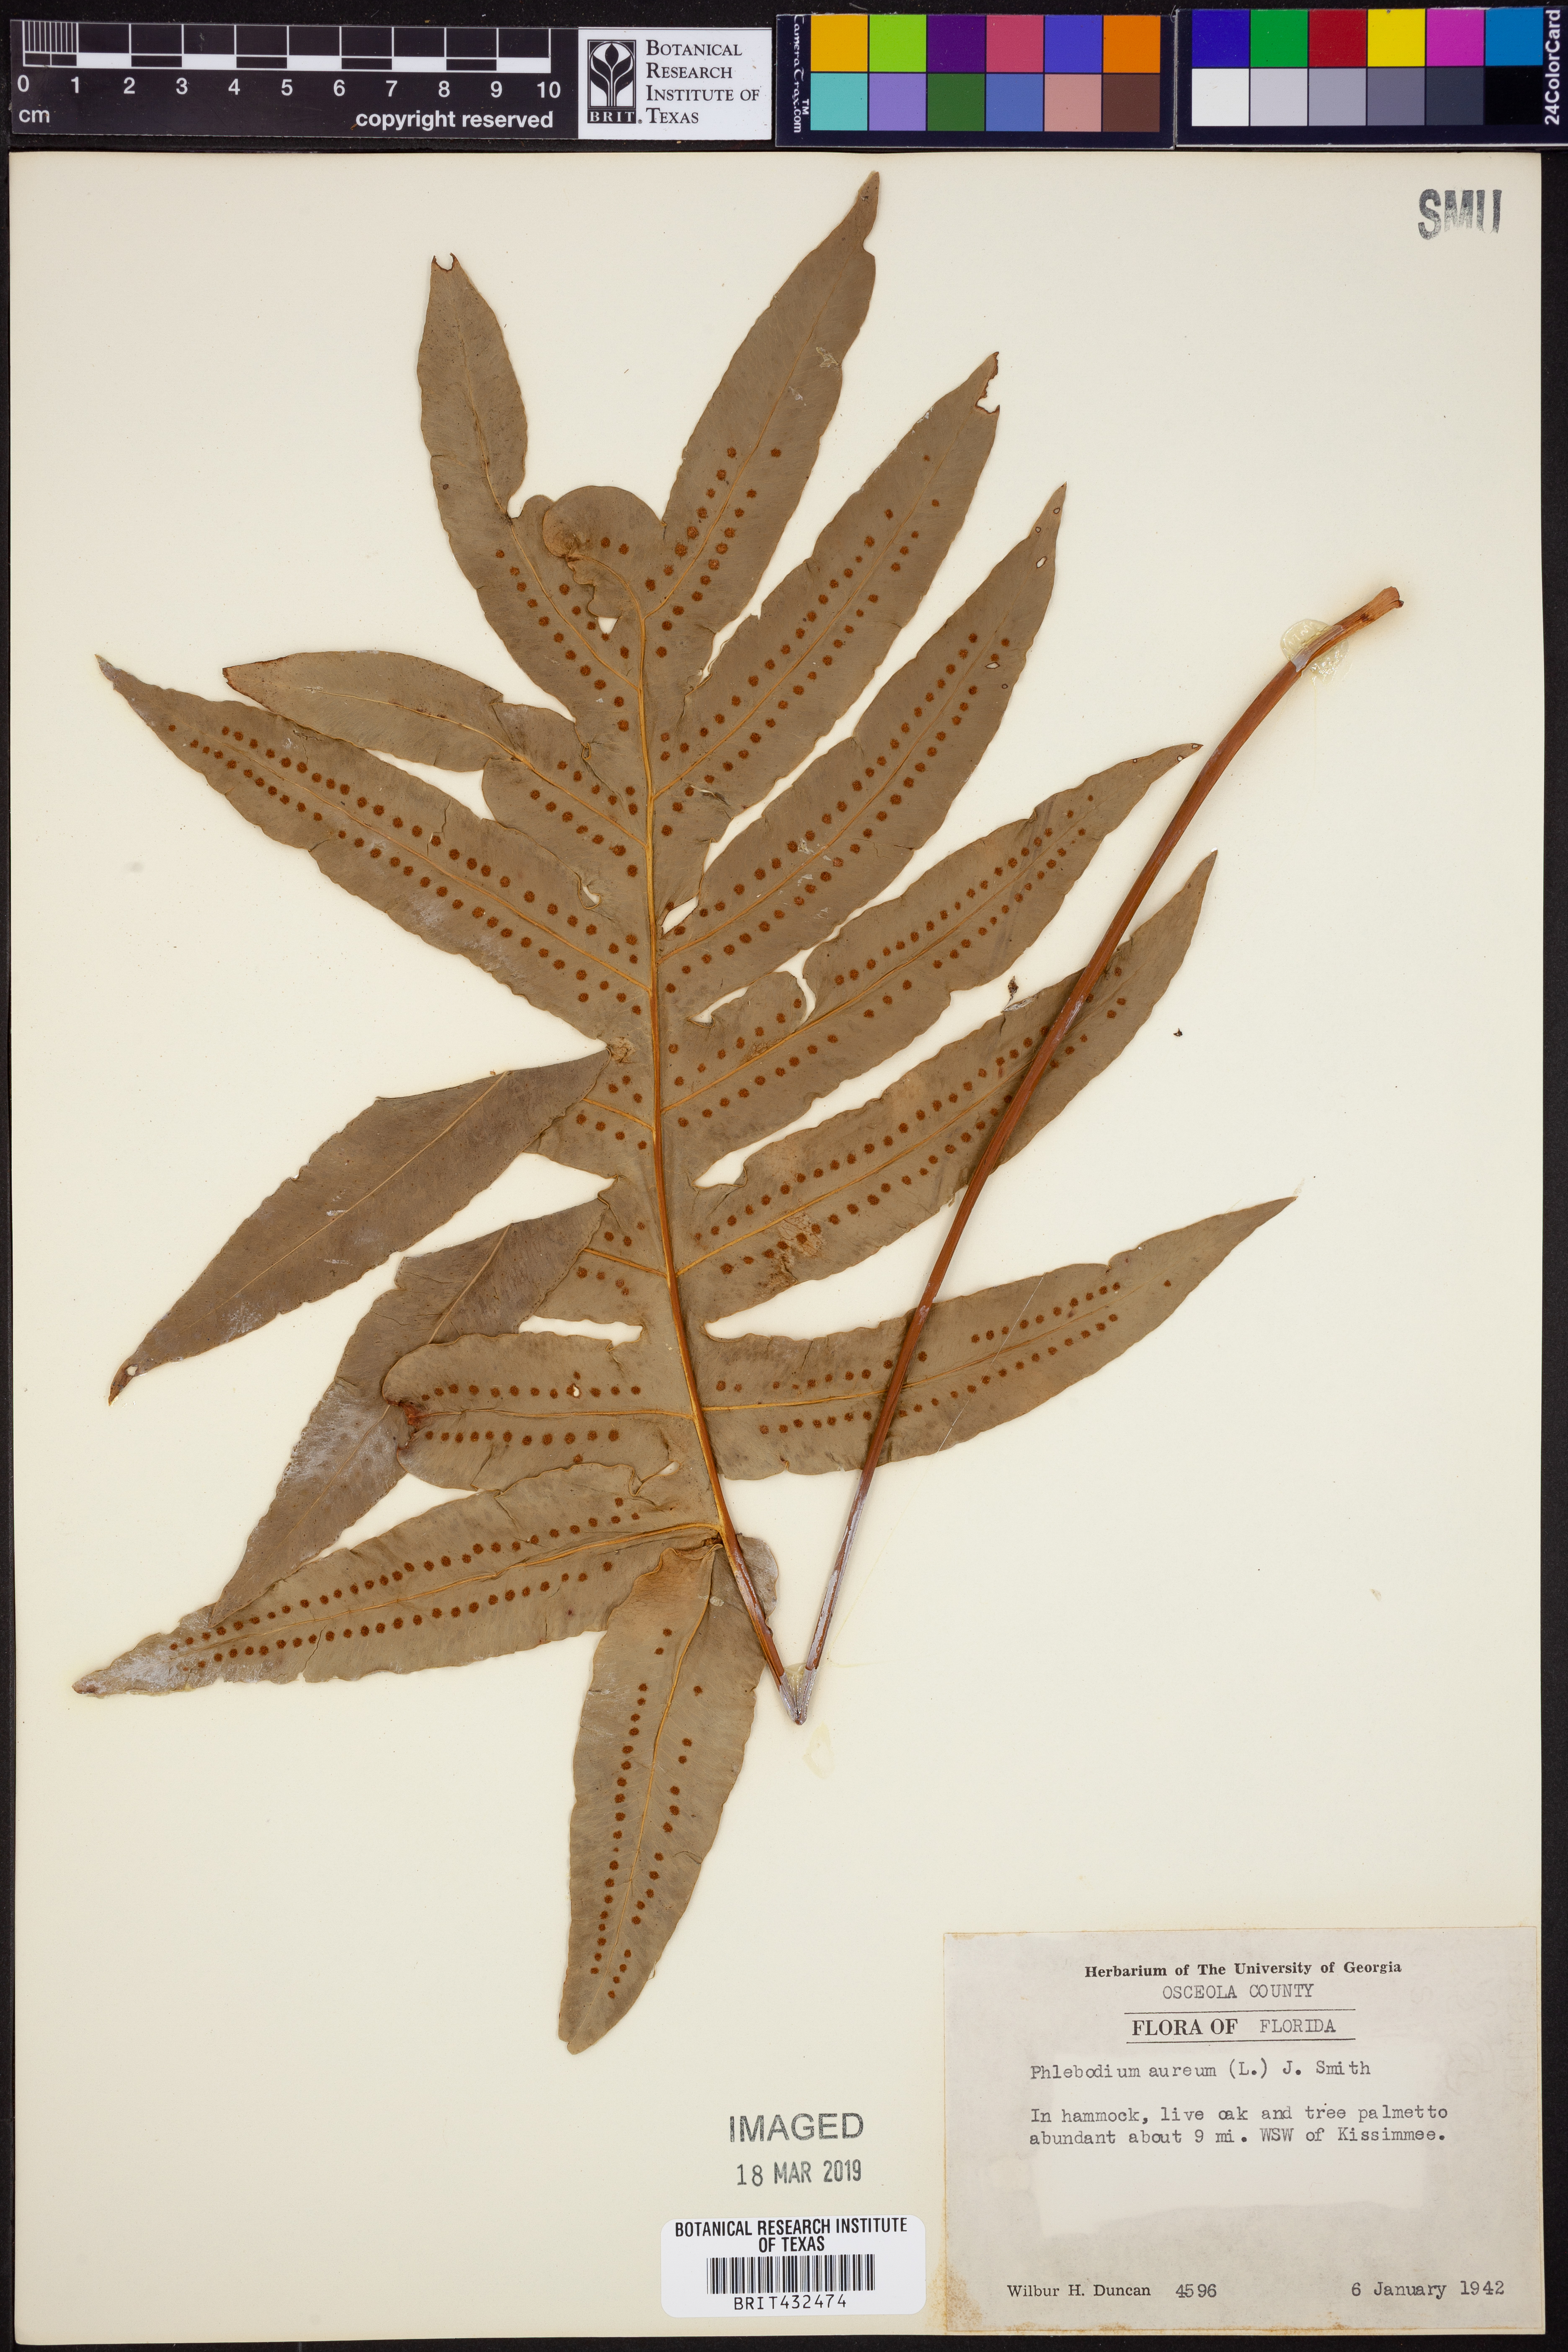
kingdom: Plantae
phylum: Tracheophyta
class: Polypodiopsida
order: Polypodiales
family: Polypodiaceae
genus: Phlebodium
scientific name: Phlebodium aureum
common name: Gold-foot fern
